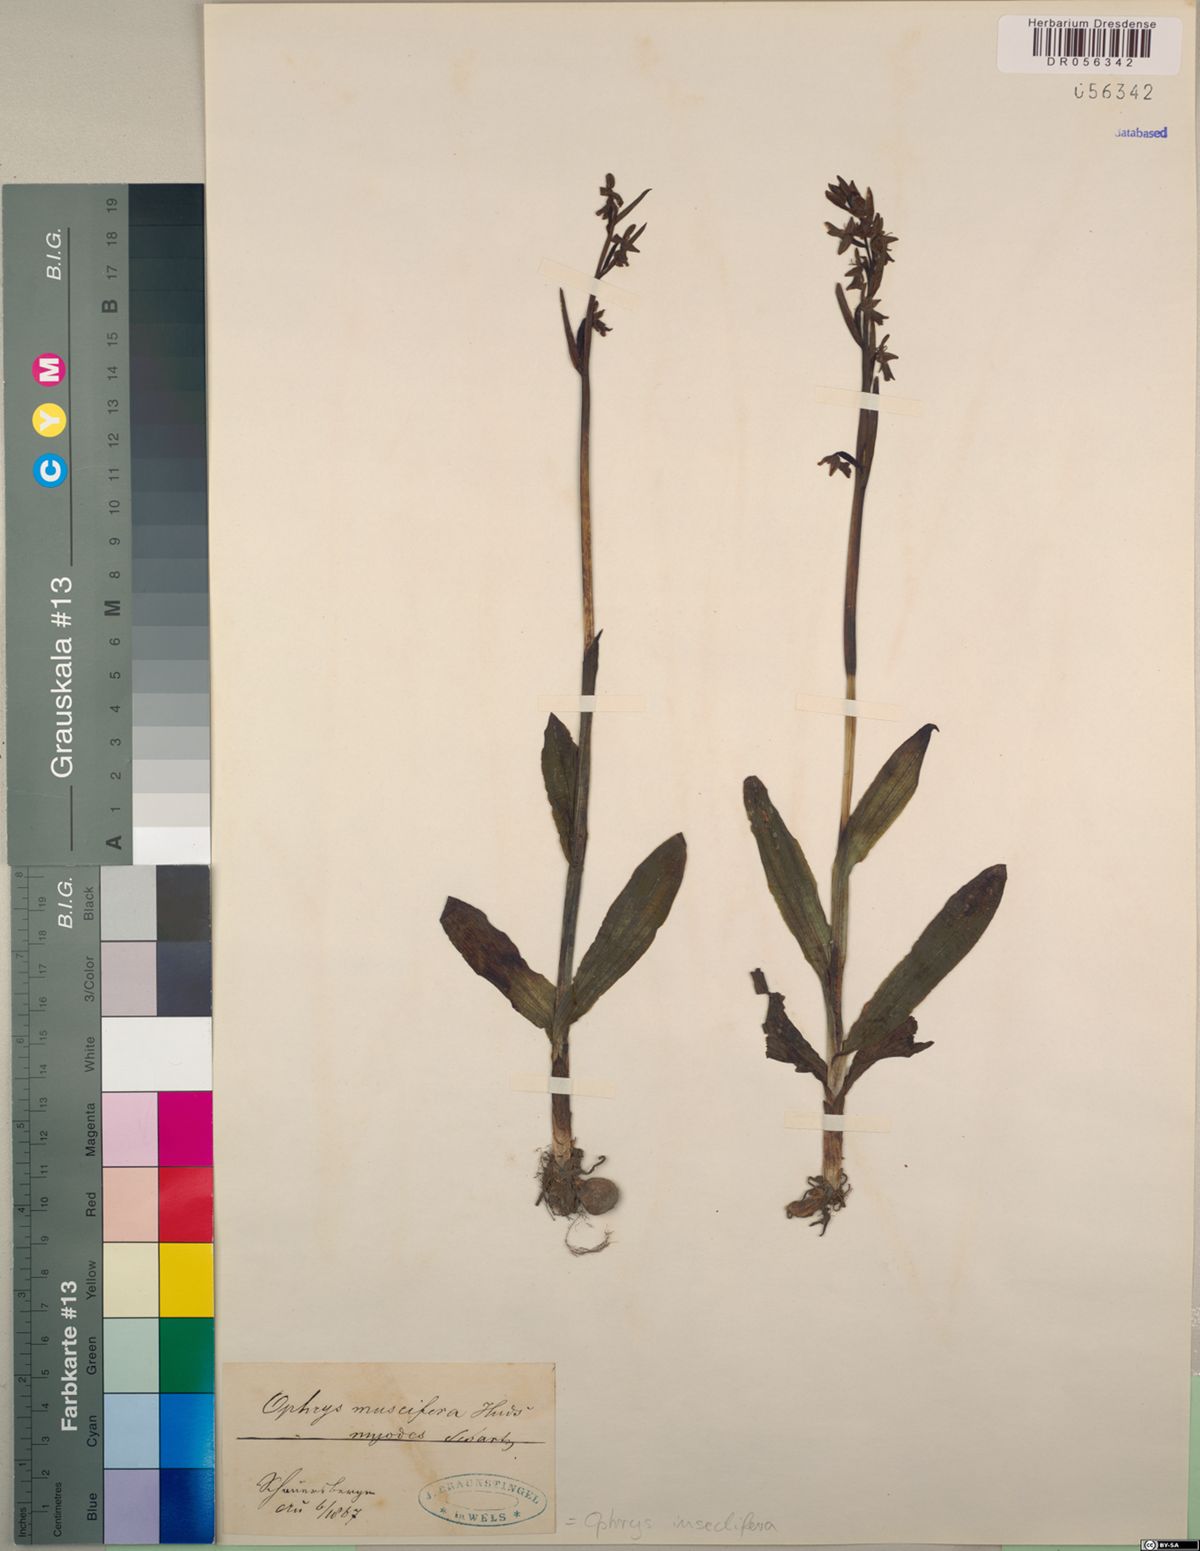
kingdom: Plantae
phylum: Tracheophyta
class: Liliopsida
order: Asparagales
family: Orchidaceae
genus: Ophrys
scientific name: Ophrys insectifera
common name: Fly orchid
